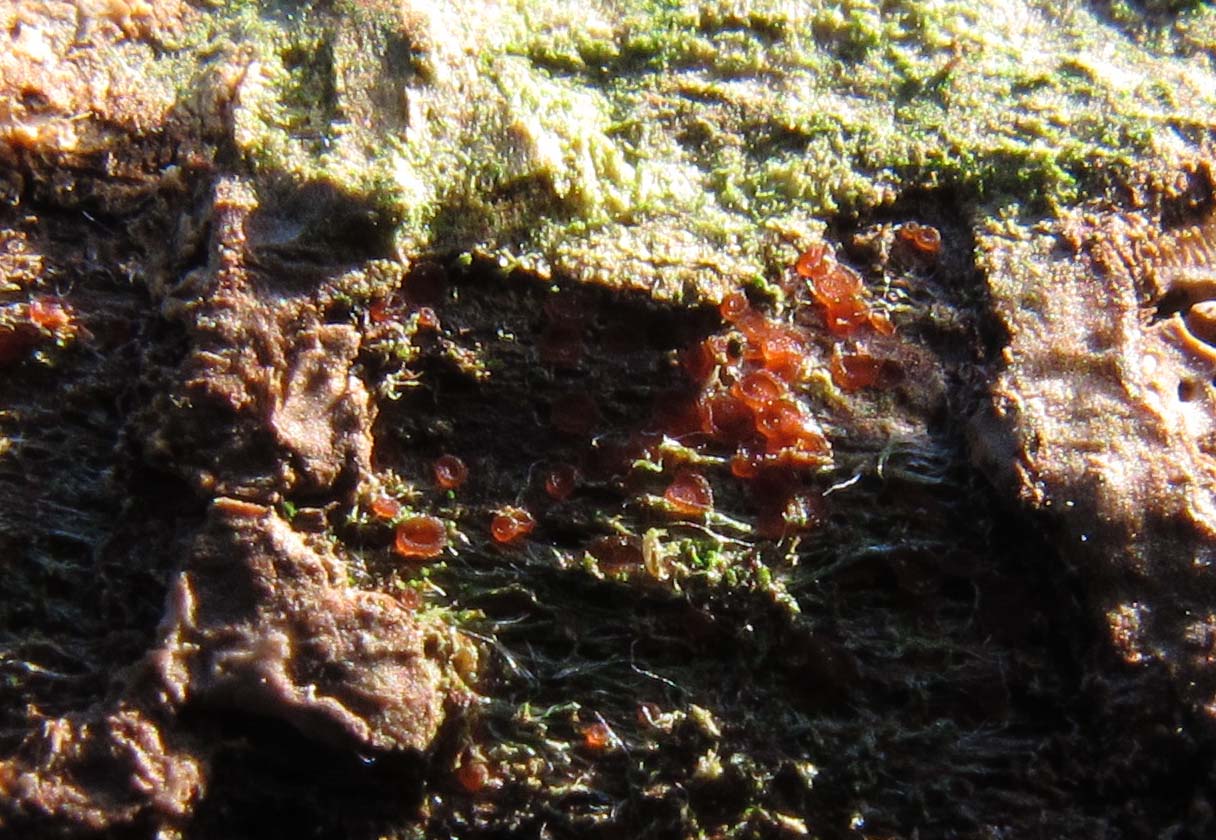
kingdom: Fungi
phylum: Ascomycota
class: Orbiliomycetes
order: Orbiliales
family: Orbiliaceae
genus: Orbilia
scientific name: Orbilia xanthostigma
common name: krumsporet voksskive
